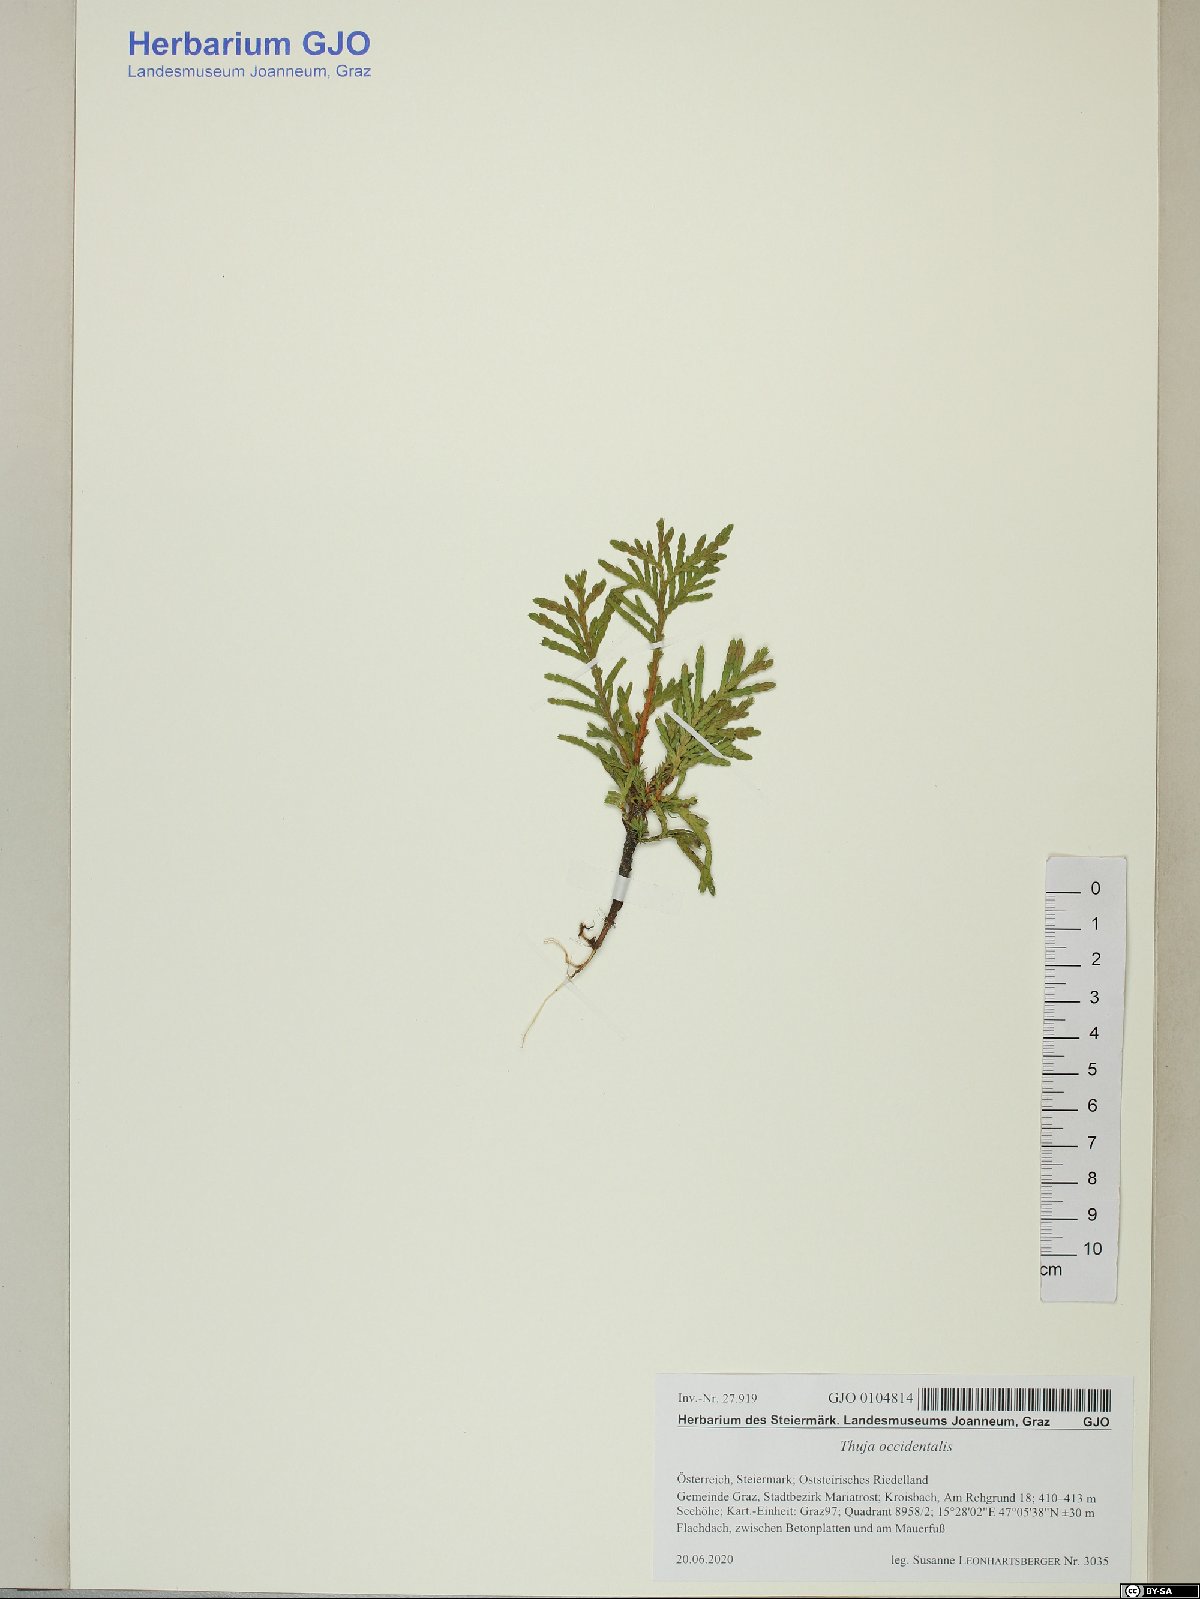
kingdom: Plantae
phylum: Tracheophyta
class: Pinopsida
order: Pinales
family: Cupressaceae
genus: Thuja
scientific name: Thuja occidentalis
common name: Northern white-cedar
